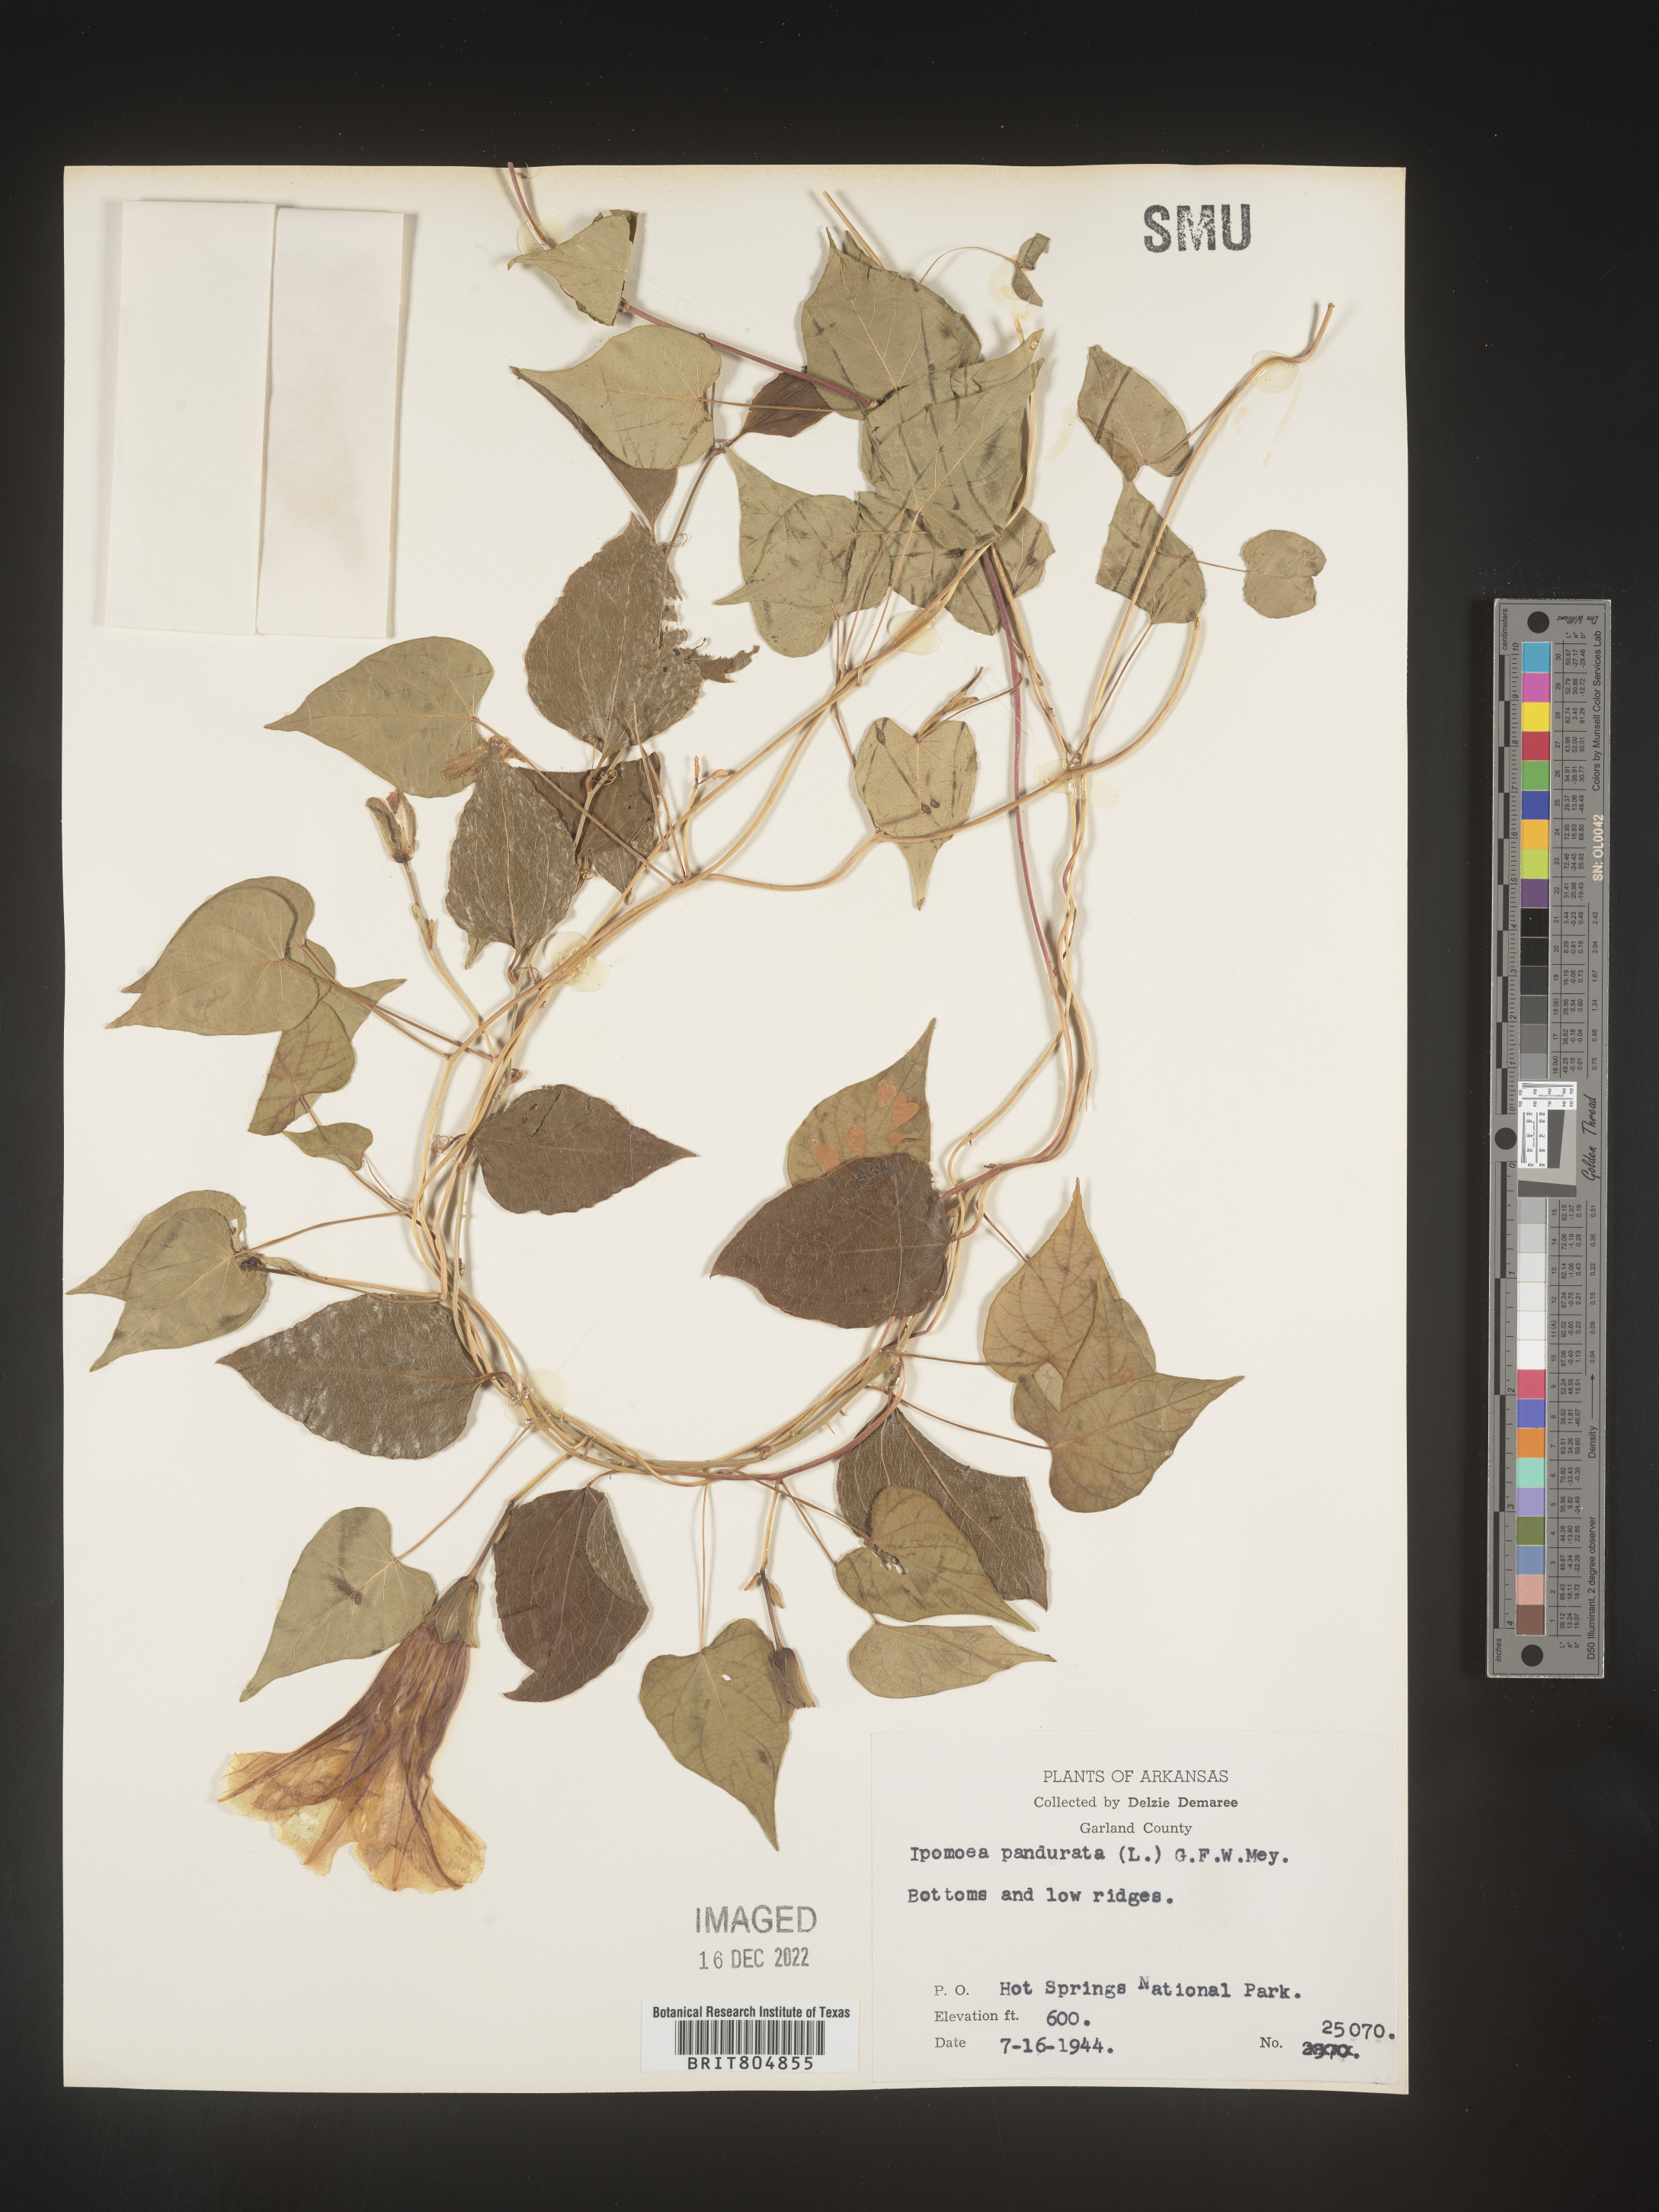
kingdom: Plantae
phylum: Tracheophyta
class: Magnoliopsida
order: Solanales
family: Convolvulaceae
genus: Ipomoea
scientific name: Ipomoea pandurata
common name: Man-of-the-earth
